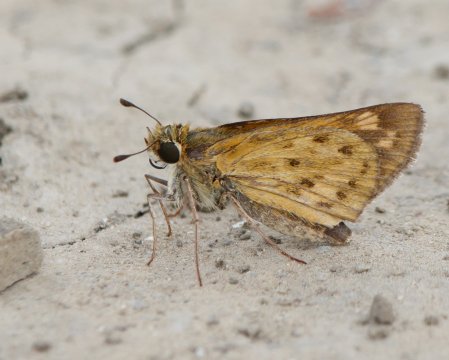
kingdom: Animalia
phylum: Arthropoda
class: Insecta
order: Lepidoptera
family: Hesperiidae
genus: Hylephila
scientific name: Hylephila phyleus
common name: Fiery Skipper
